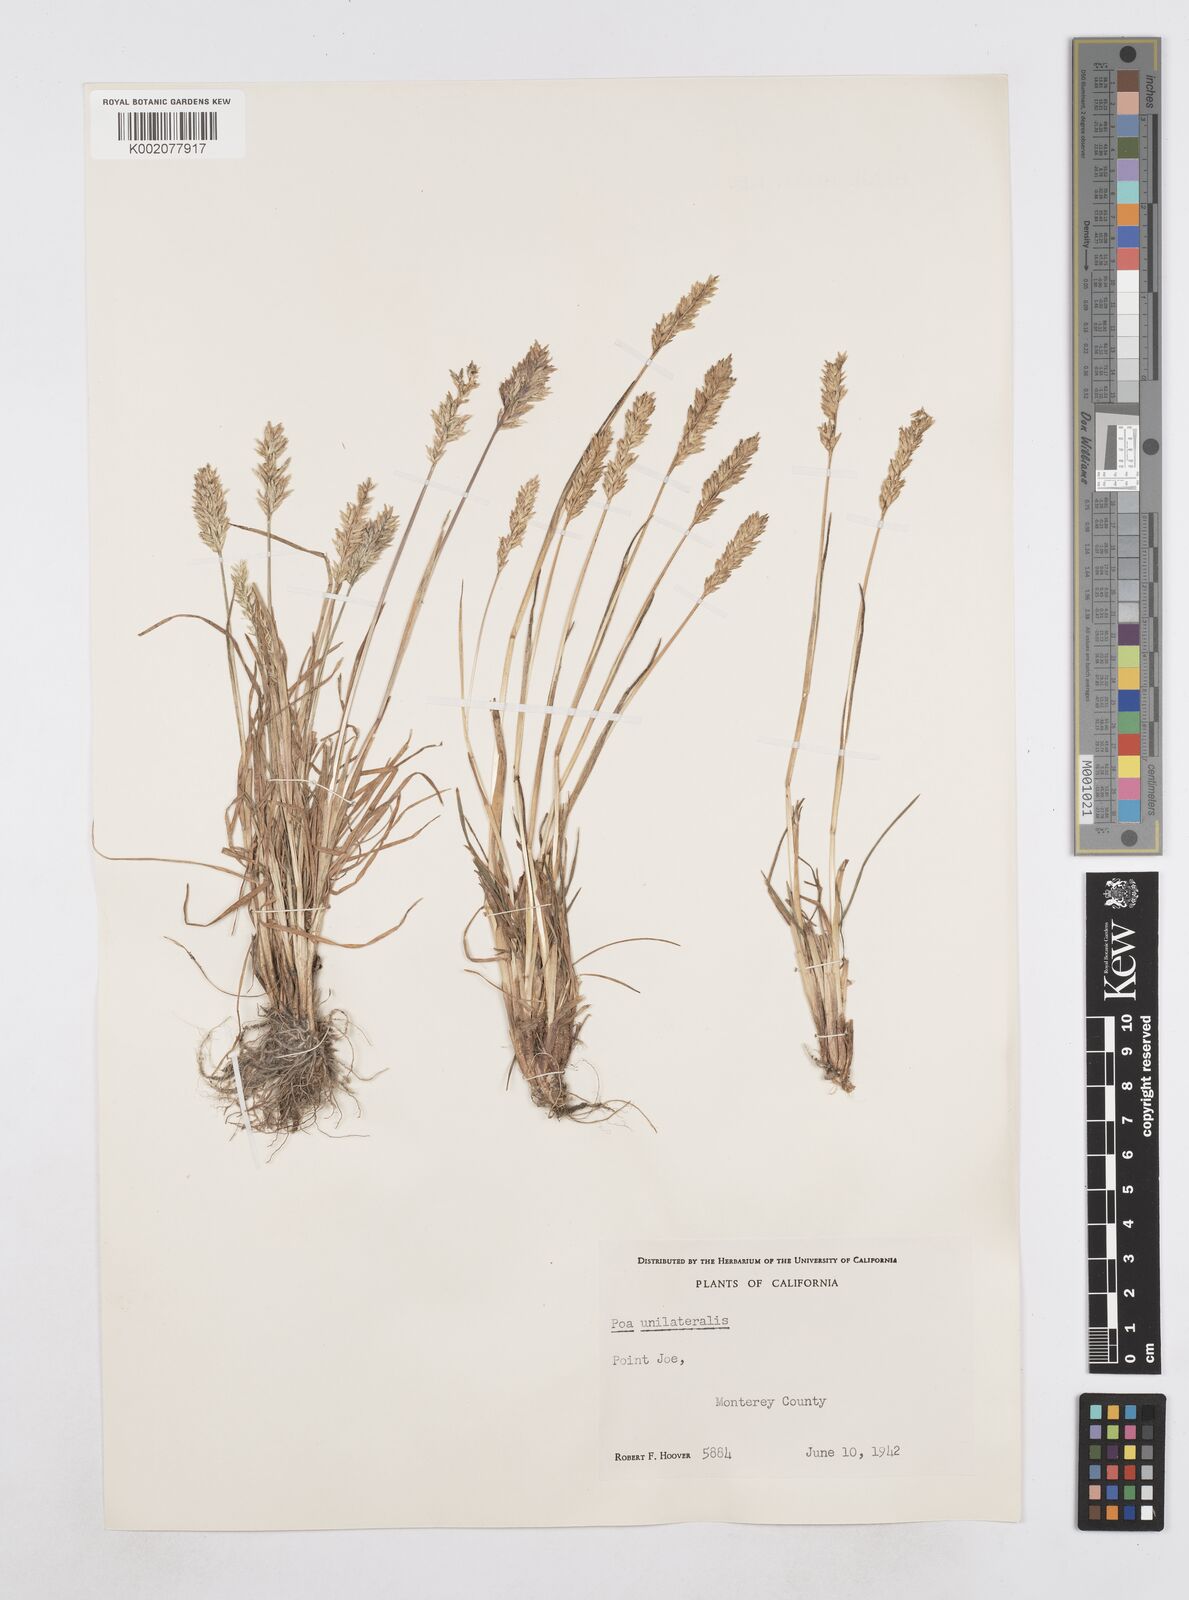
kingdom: Plantae
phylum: Tracheophyta
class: Liliopsida
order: Poales
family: Poaceae
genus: Poa
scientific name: Poa unilateralis
